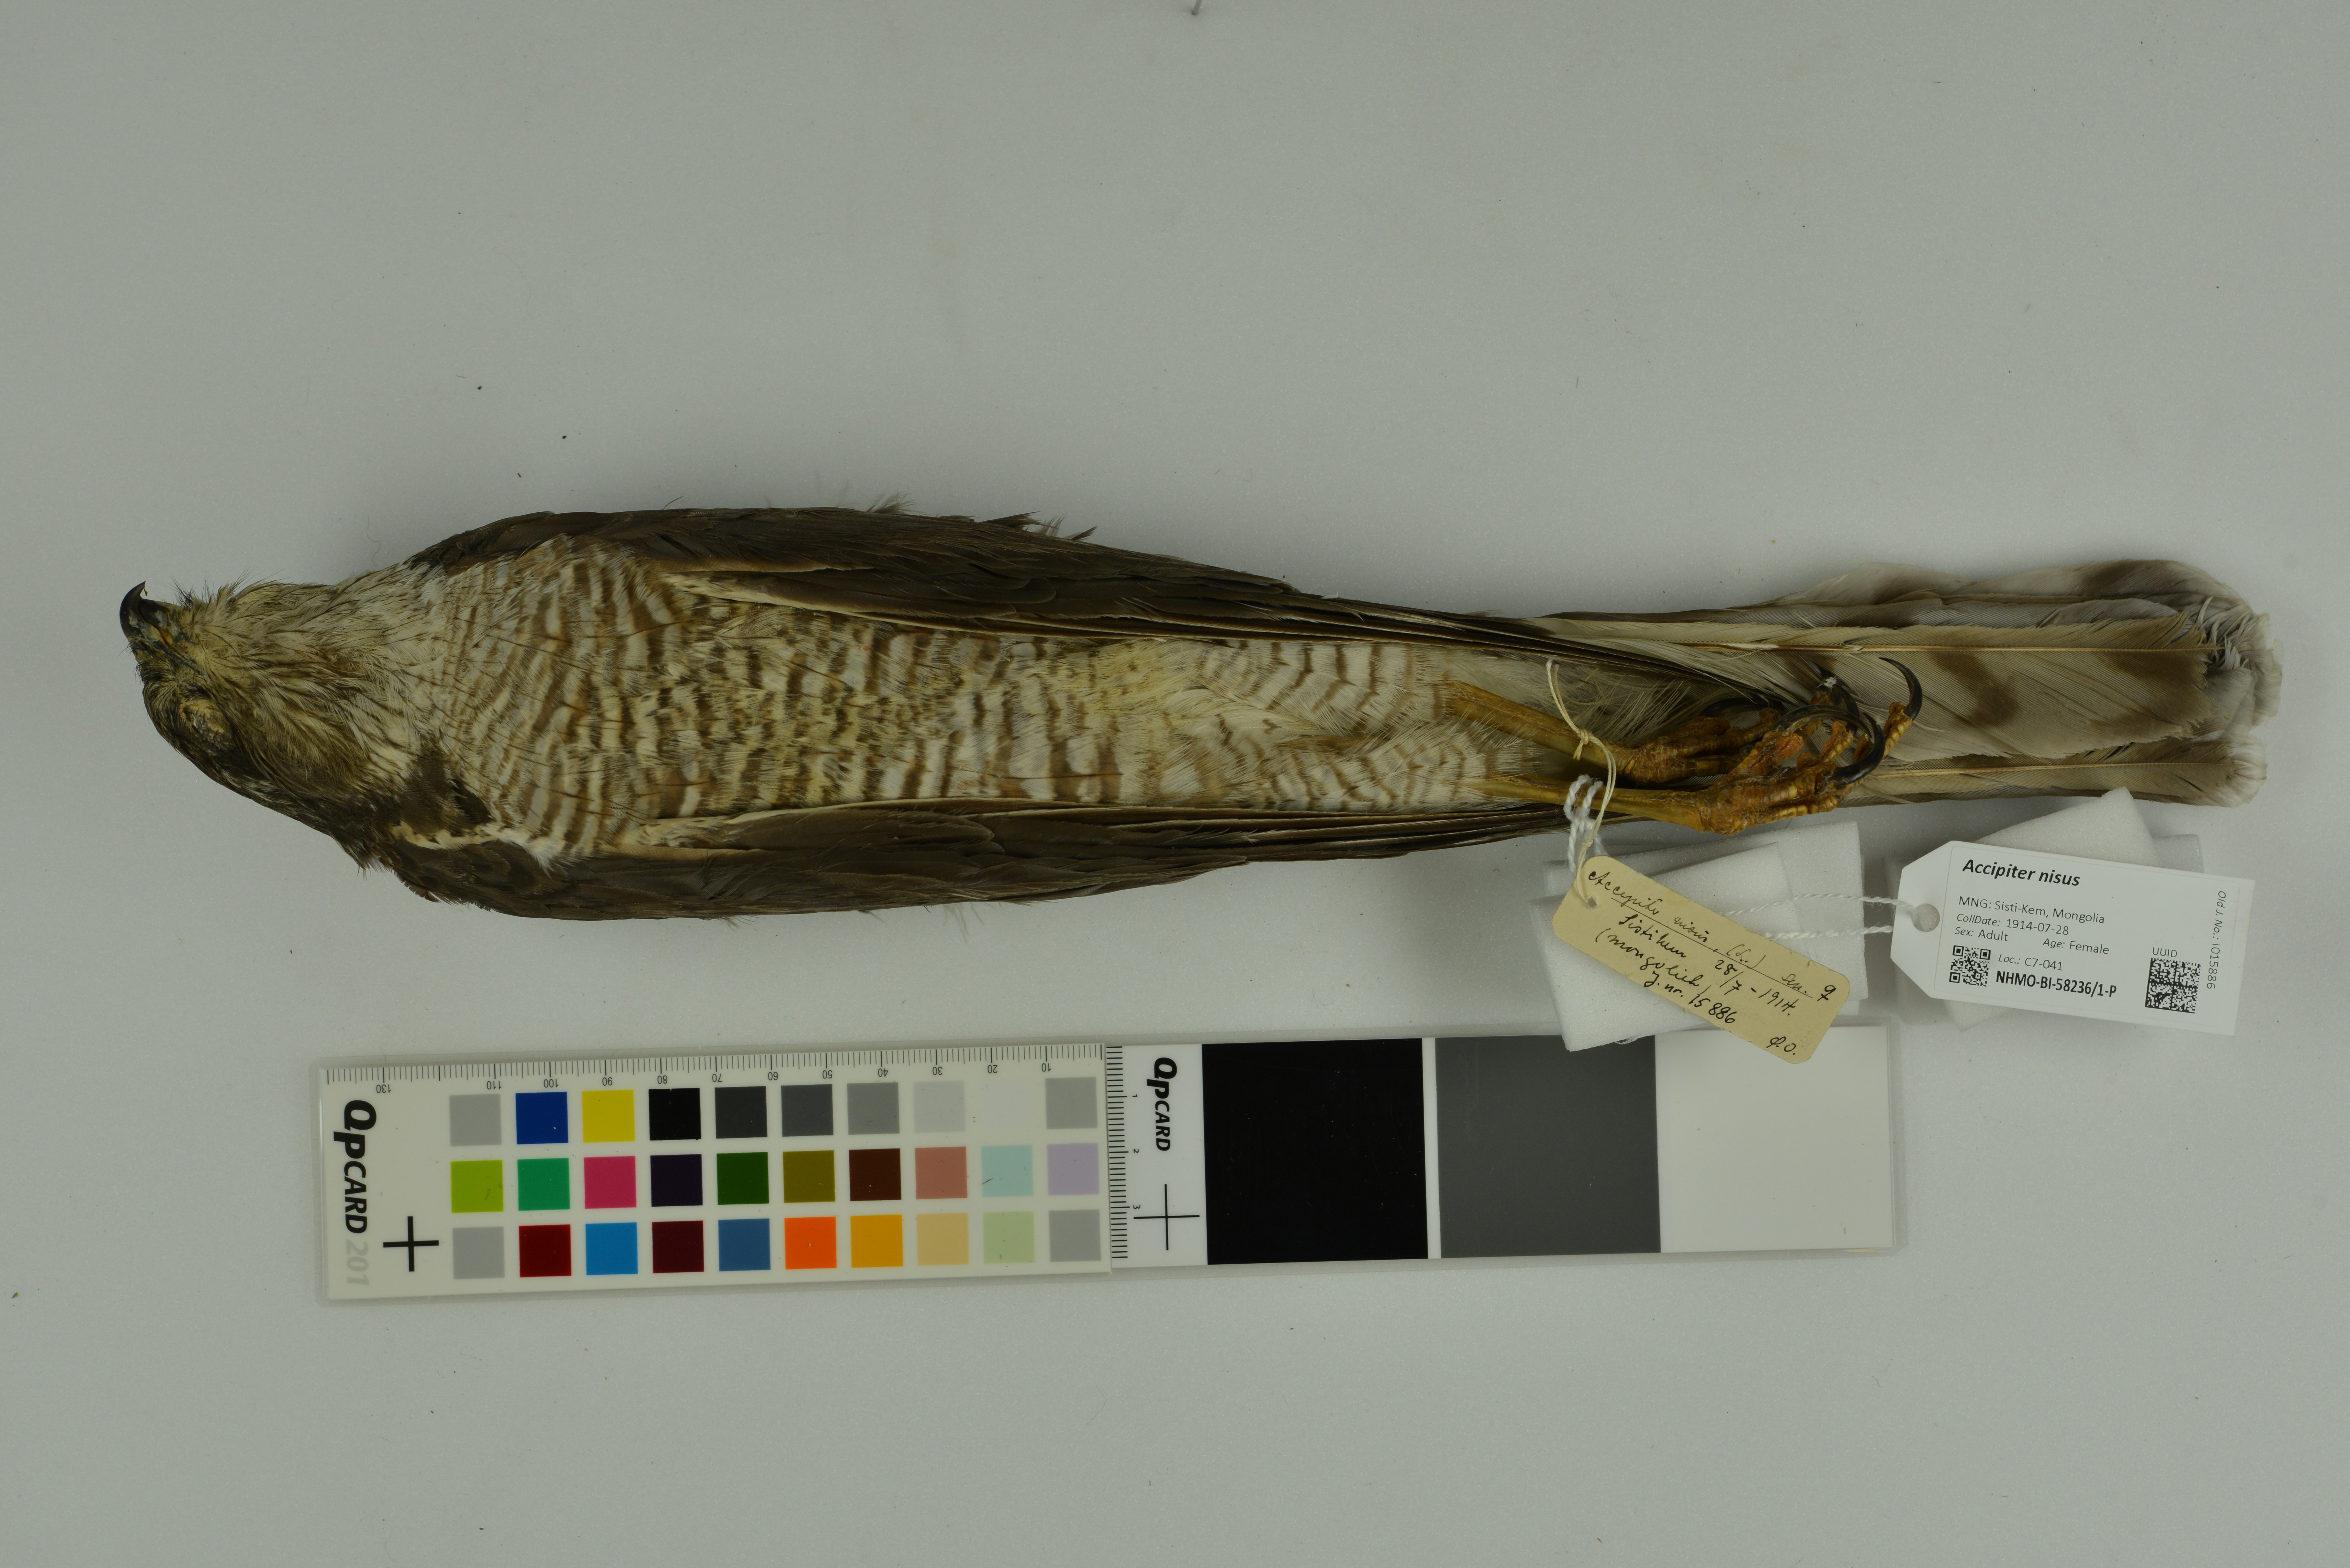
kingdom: Animalia
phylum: Chordata
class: Aves
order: Accipitriformes
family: Accipitridae
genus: Accipiter
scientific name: Accipiter nisus
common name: Eurasian sparrowhawk
